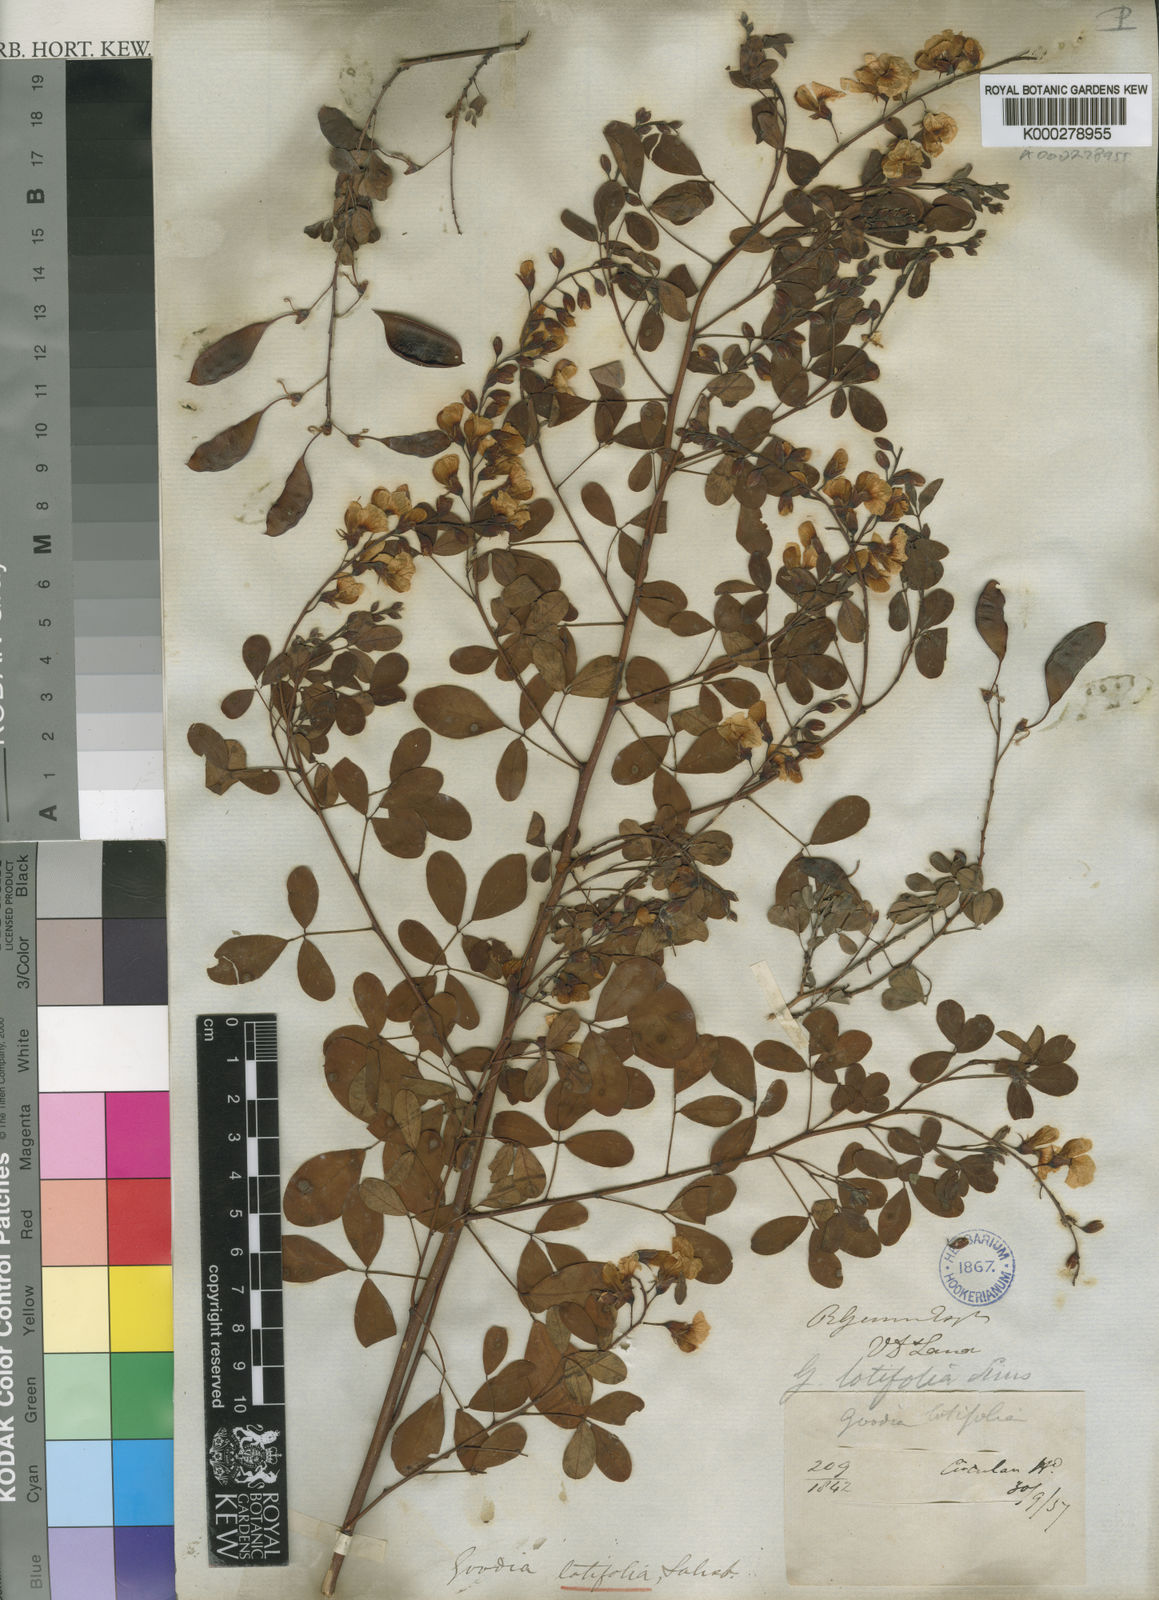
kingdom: Plantae
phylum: Tracheophyta
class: Magnoliopsida
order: Fabales
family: Fabaceae
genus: Goodia
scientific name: Goodia lotifolia
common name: Cloverleaf-poison
